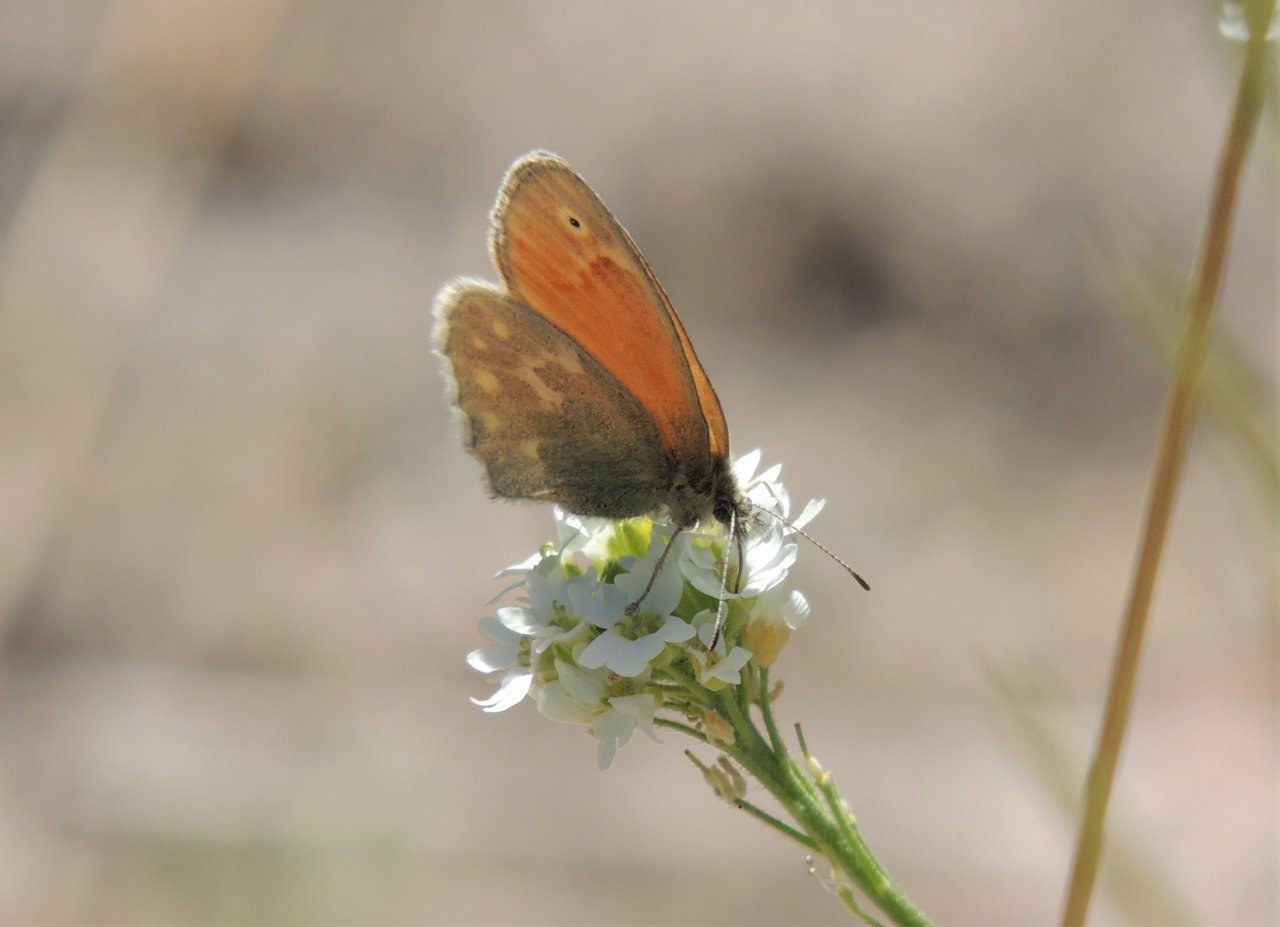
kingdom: Animalia
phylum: Arthropoda
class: Insecta
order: Lepidoptera
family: Nymphalidae
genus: Coenonympha
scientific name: Coenonympha tullia
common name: Large Heath
